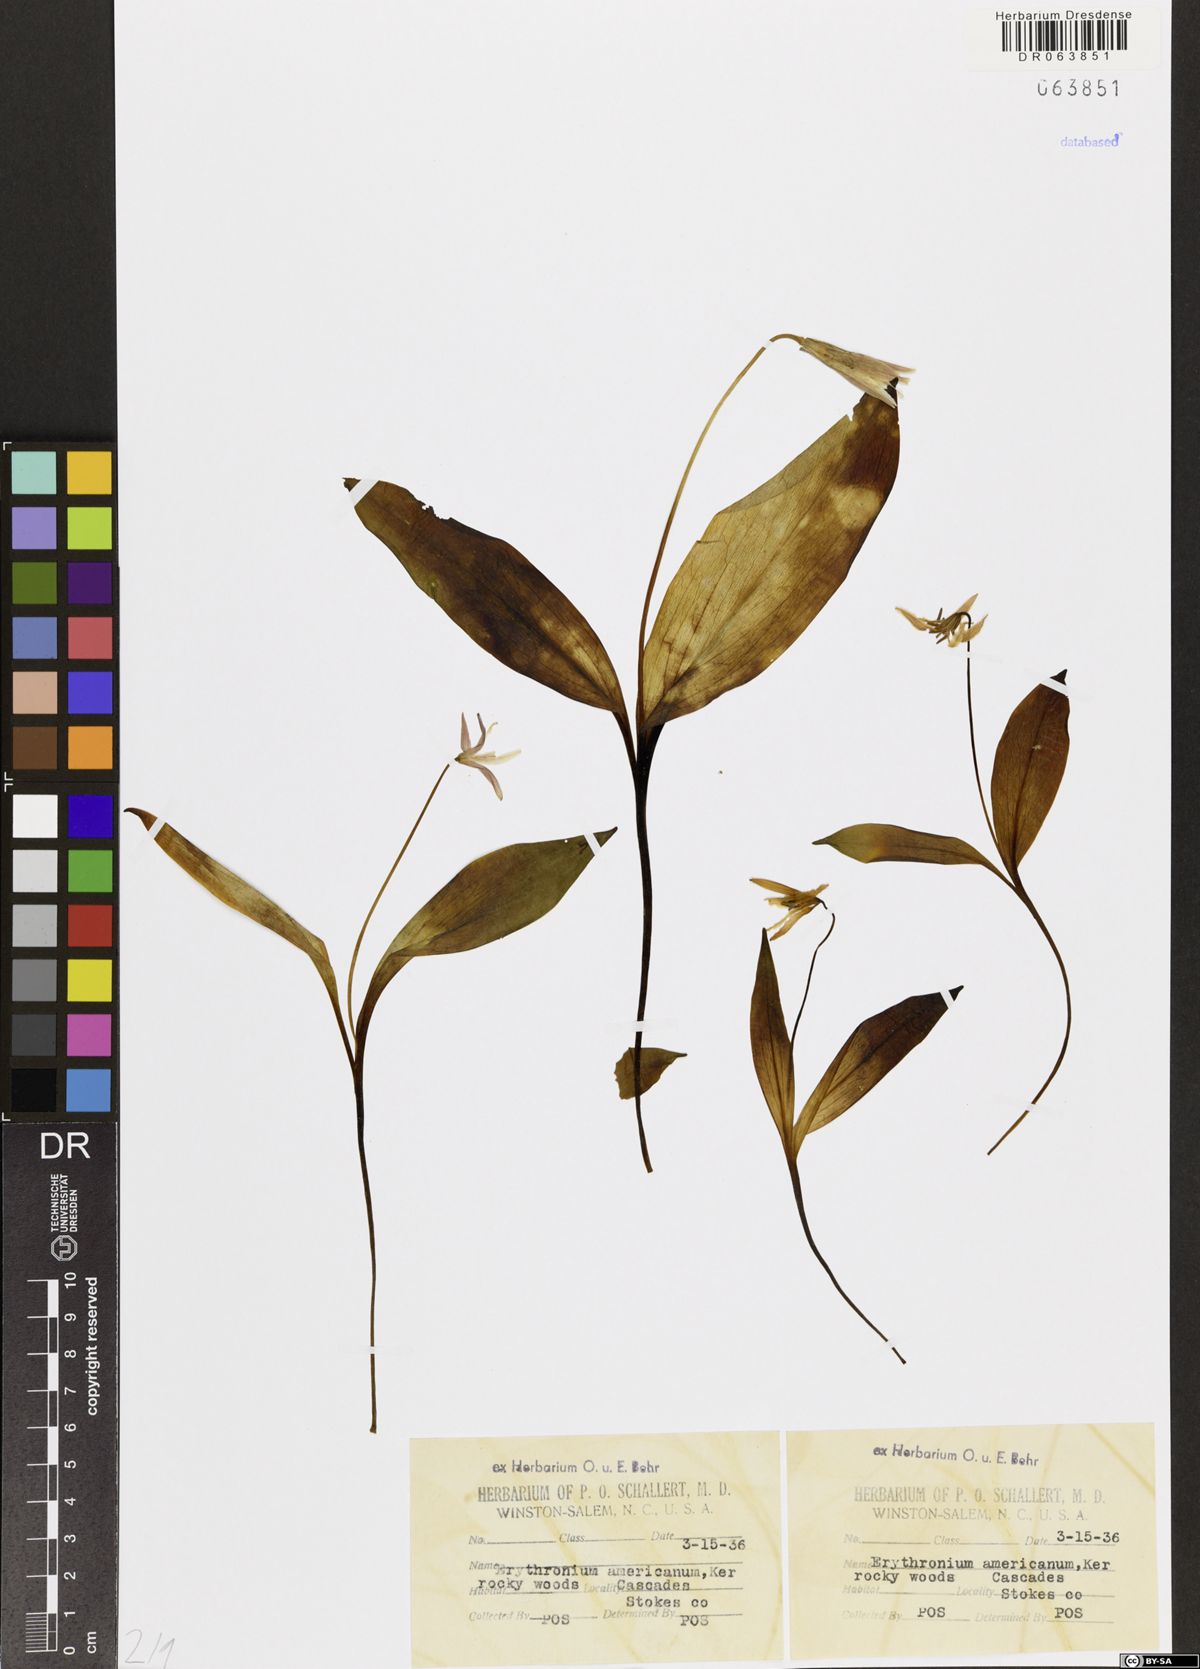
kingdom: Plantae
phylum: Tracheophyta
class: Liliopsida
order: Liliales
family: Liliaceae
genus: Erythronium
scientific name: Erythronium americanum
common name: Yellow adder's-tongue
